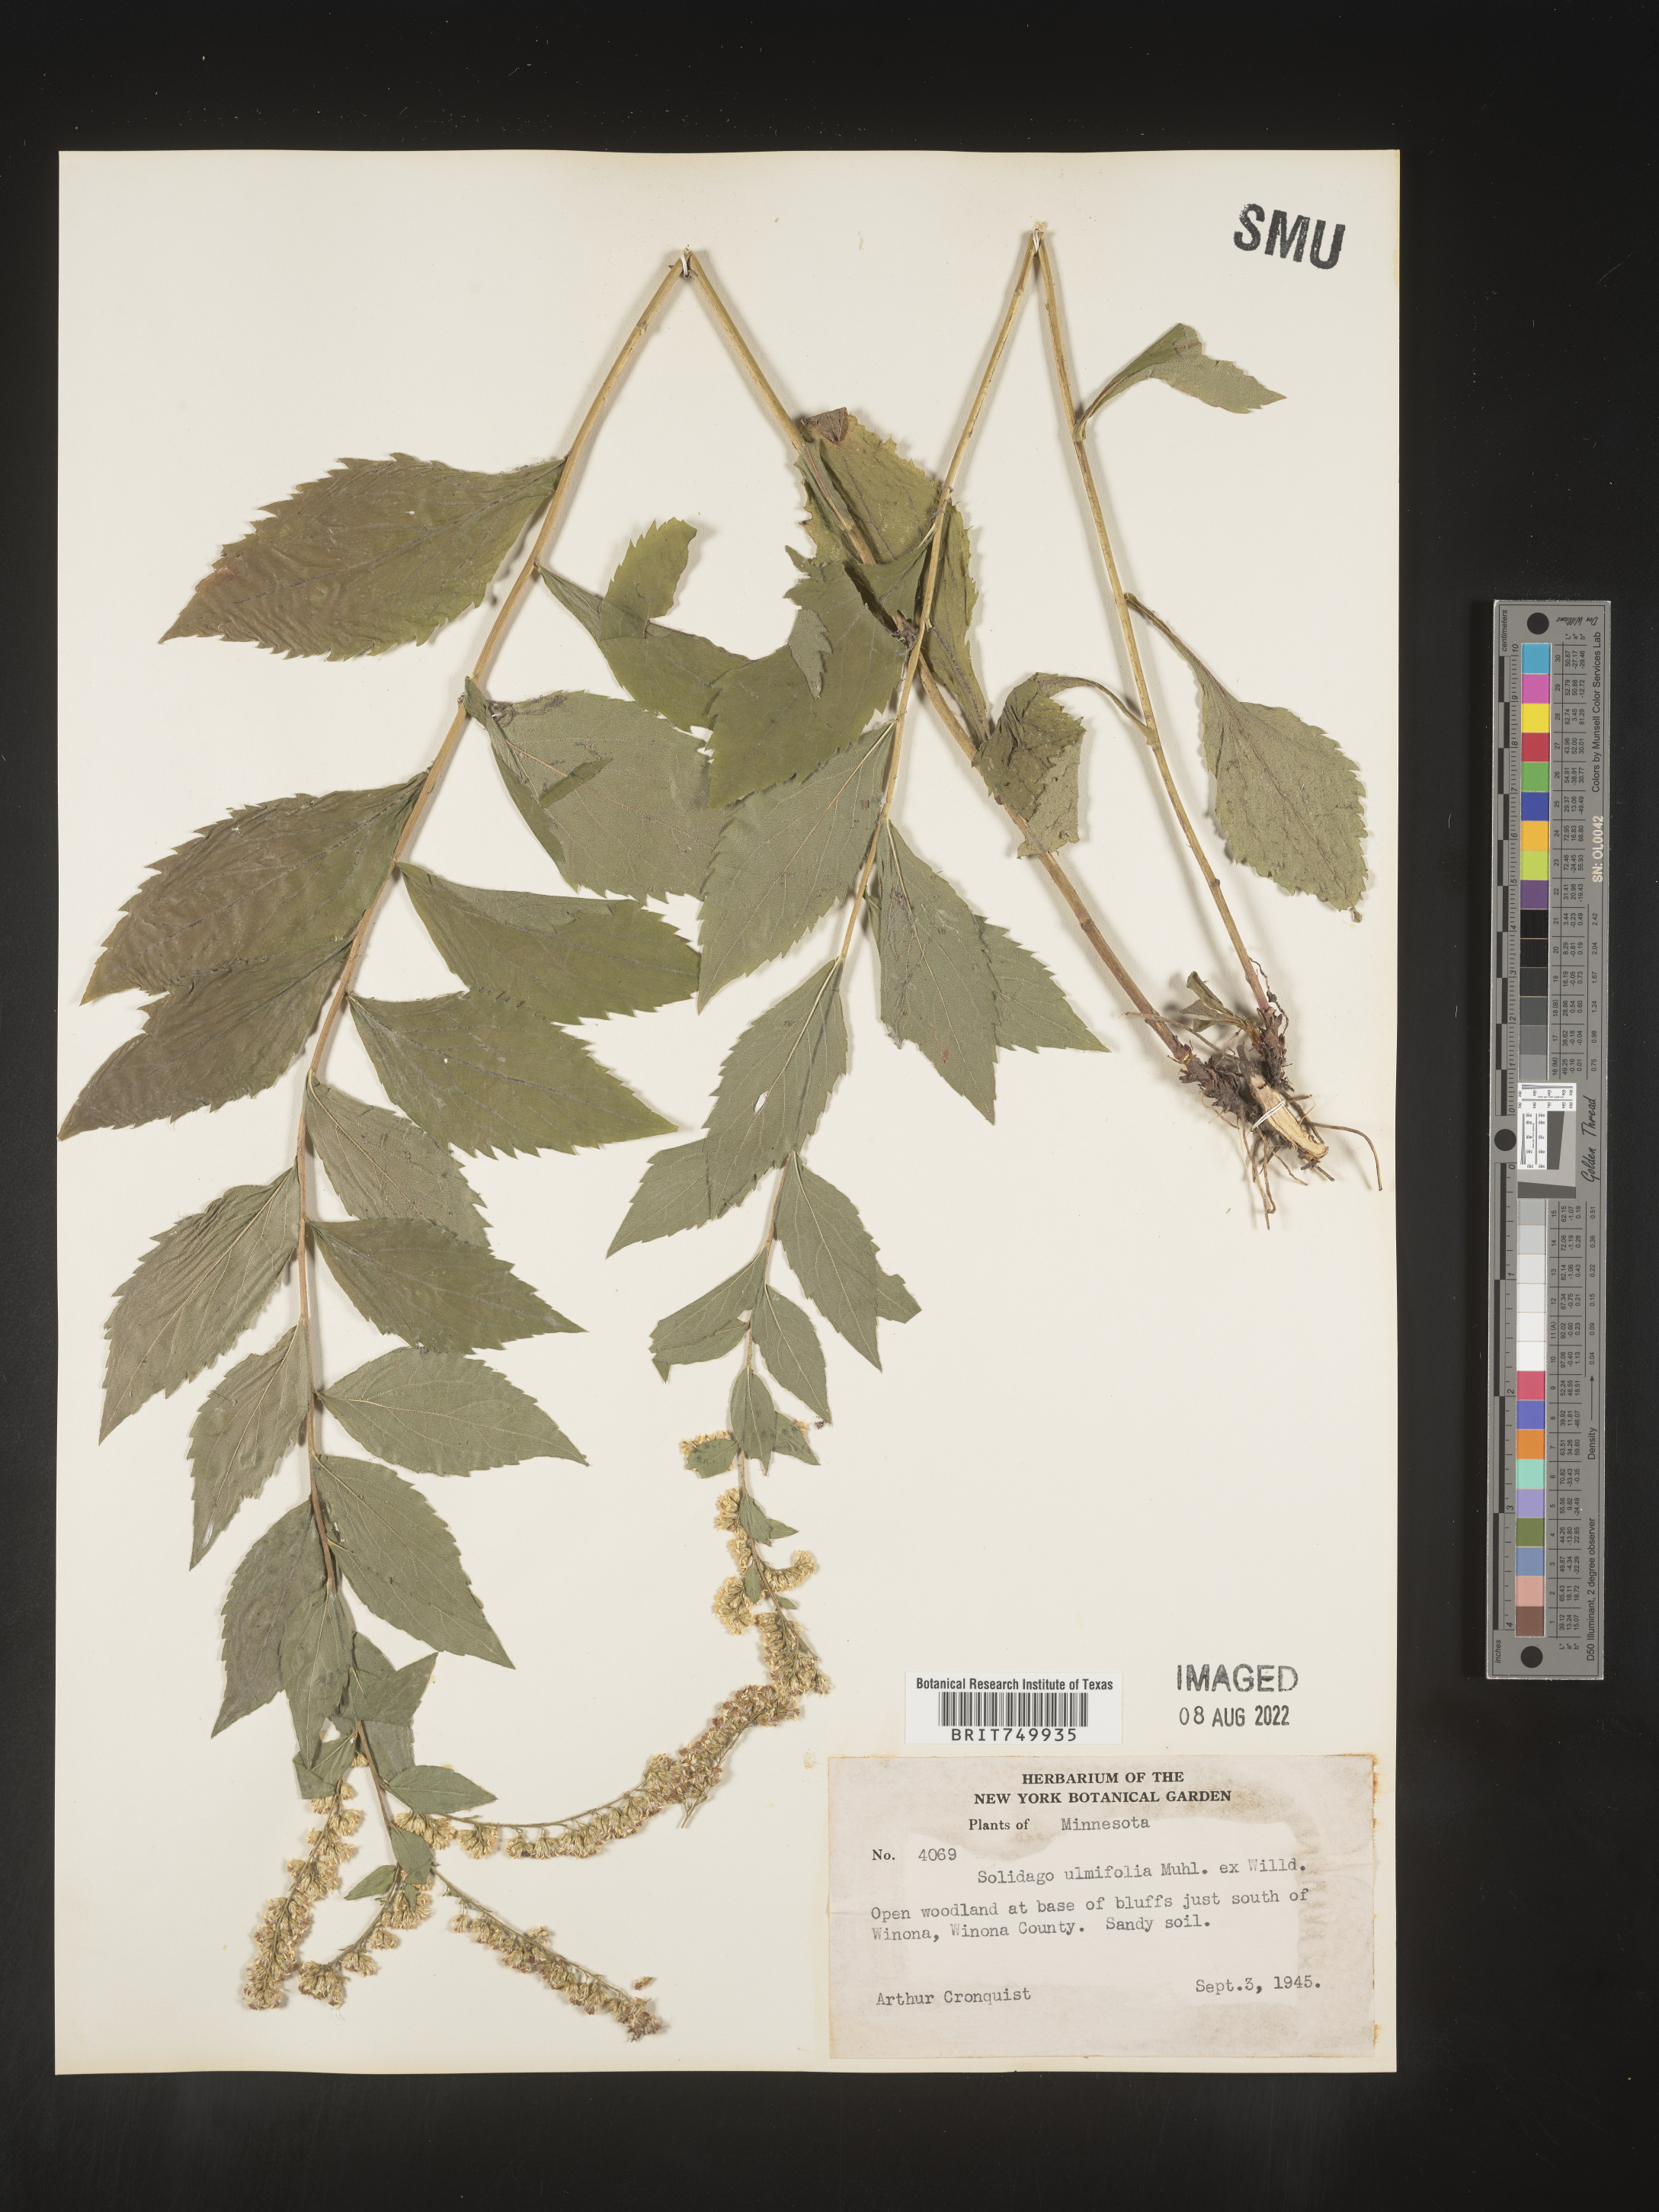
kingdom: Plantae
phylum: Tracheophyta
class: Magnoliopsida
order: Asterales
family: Asteraceae
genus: Solidago
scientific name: Solidago ulmifolia
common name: Elm-leaf goldenrod
